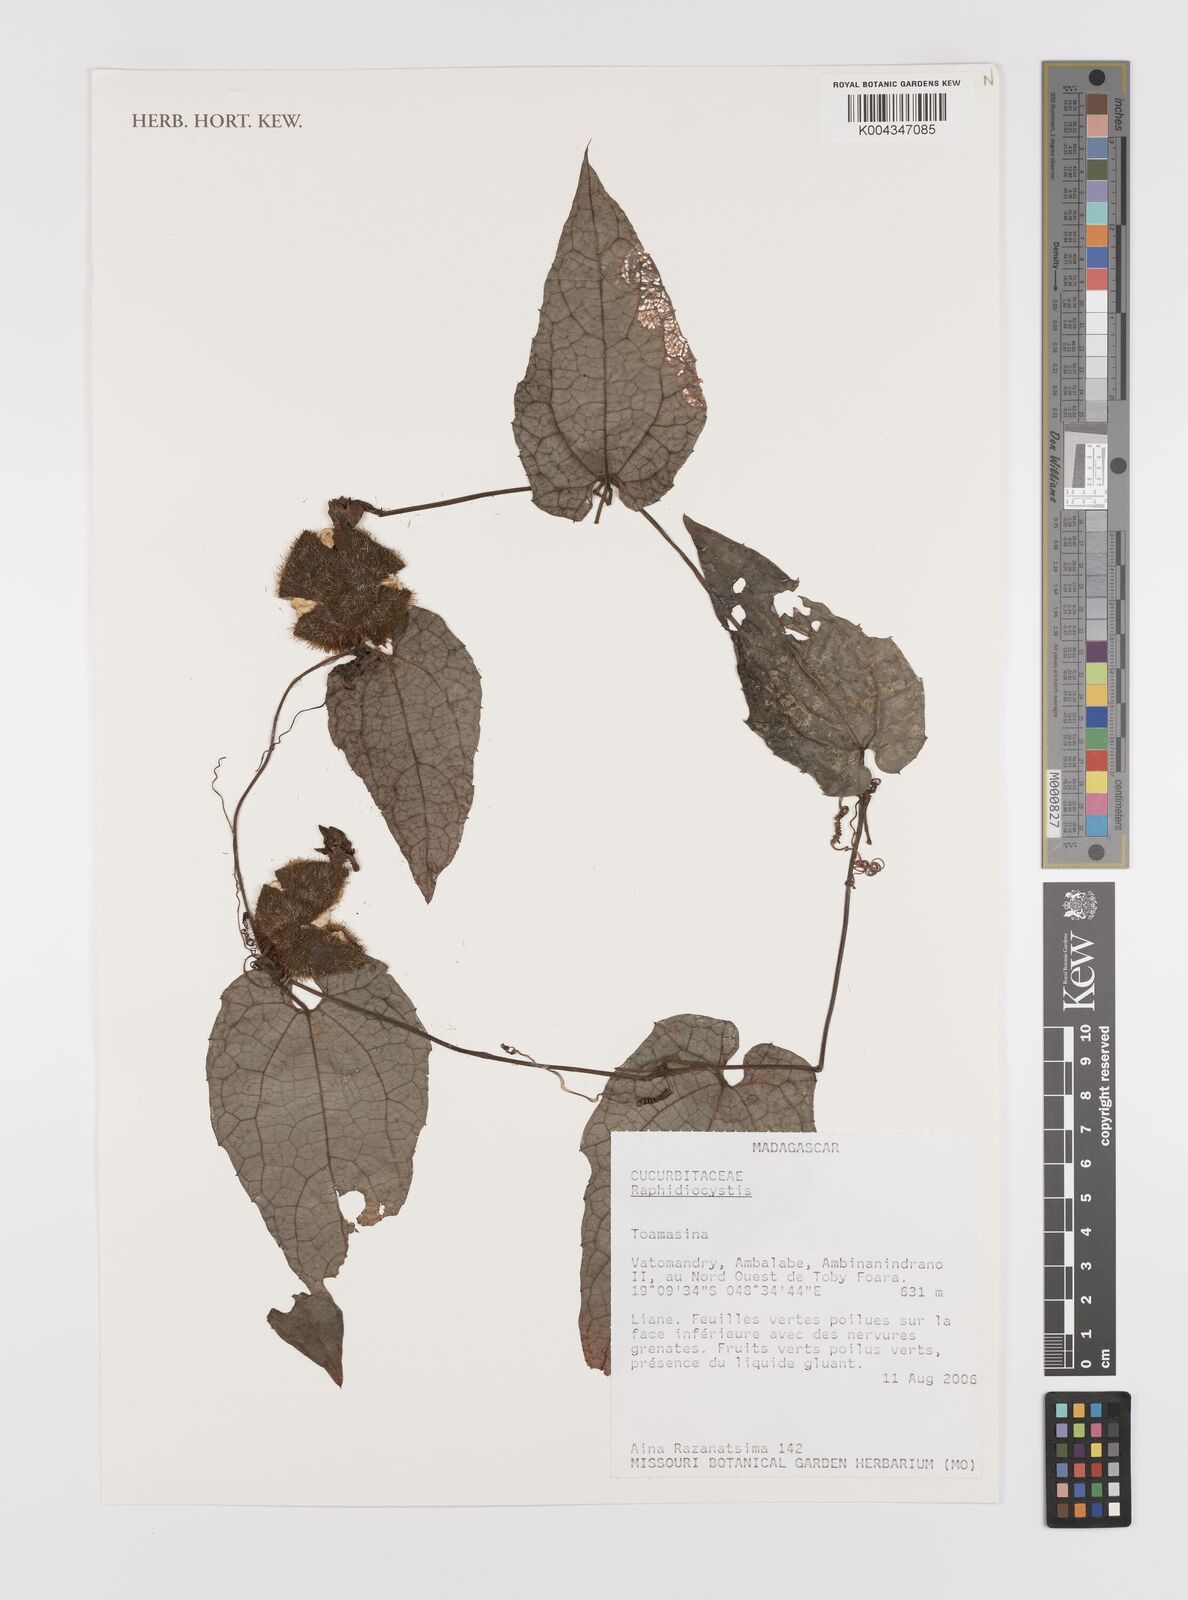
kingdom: Plantae
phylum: Tracheophyta
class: Magnoliopsida
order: Cucurbitales
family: Cucurbitaceae
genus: Raphidiocystis
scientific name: Raphidiocystis
